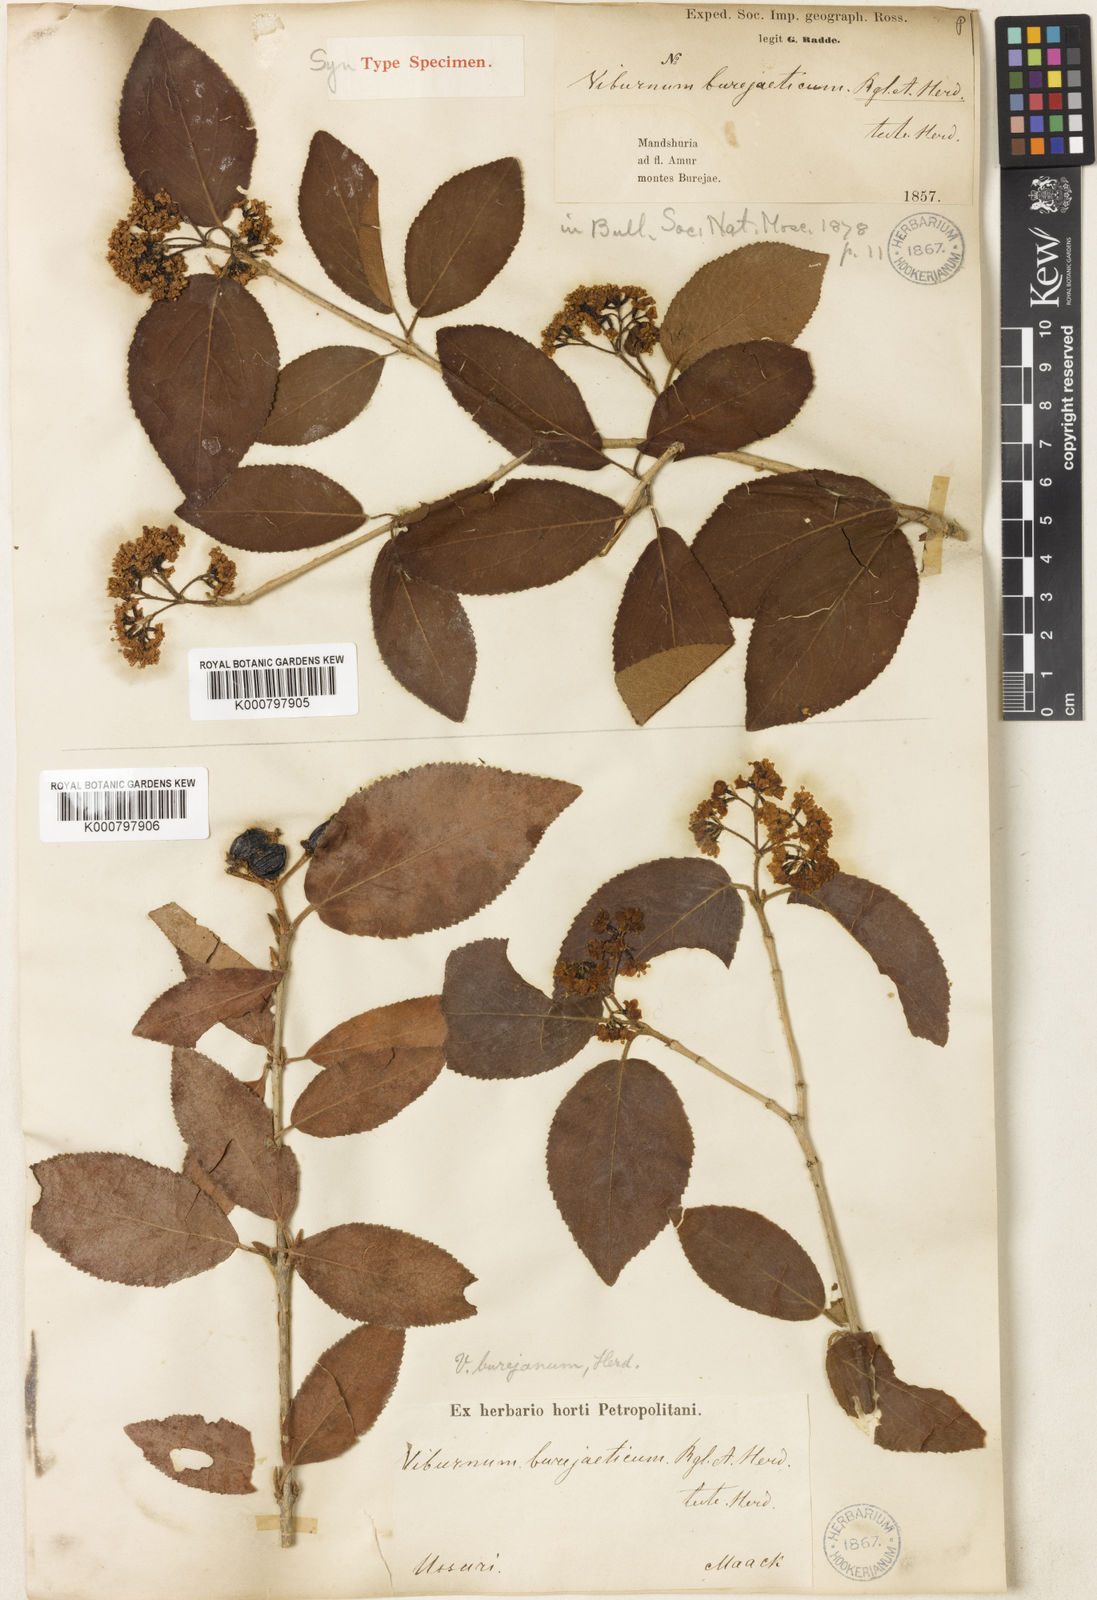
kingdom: Plantae
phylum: Tracheophyta
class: Magnoliopsida
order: Dipsacales
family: Viburnaceae
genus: Viburnum
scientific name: Viburnum burejaeticum
